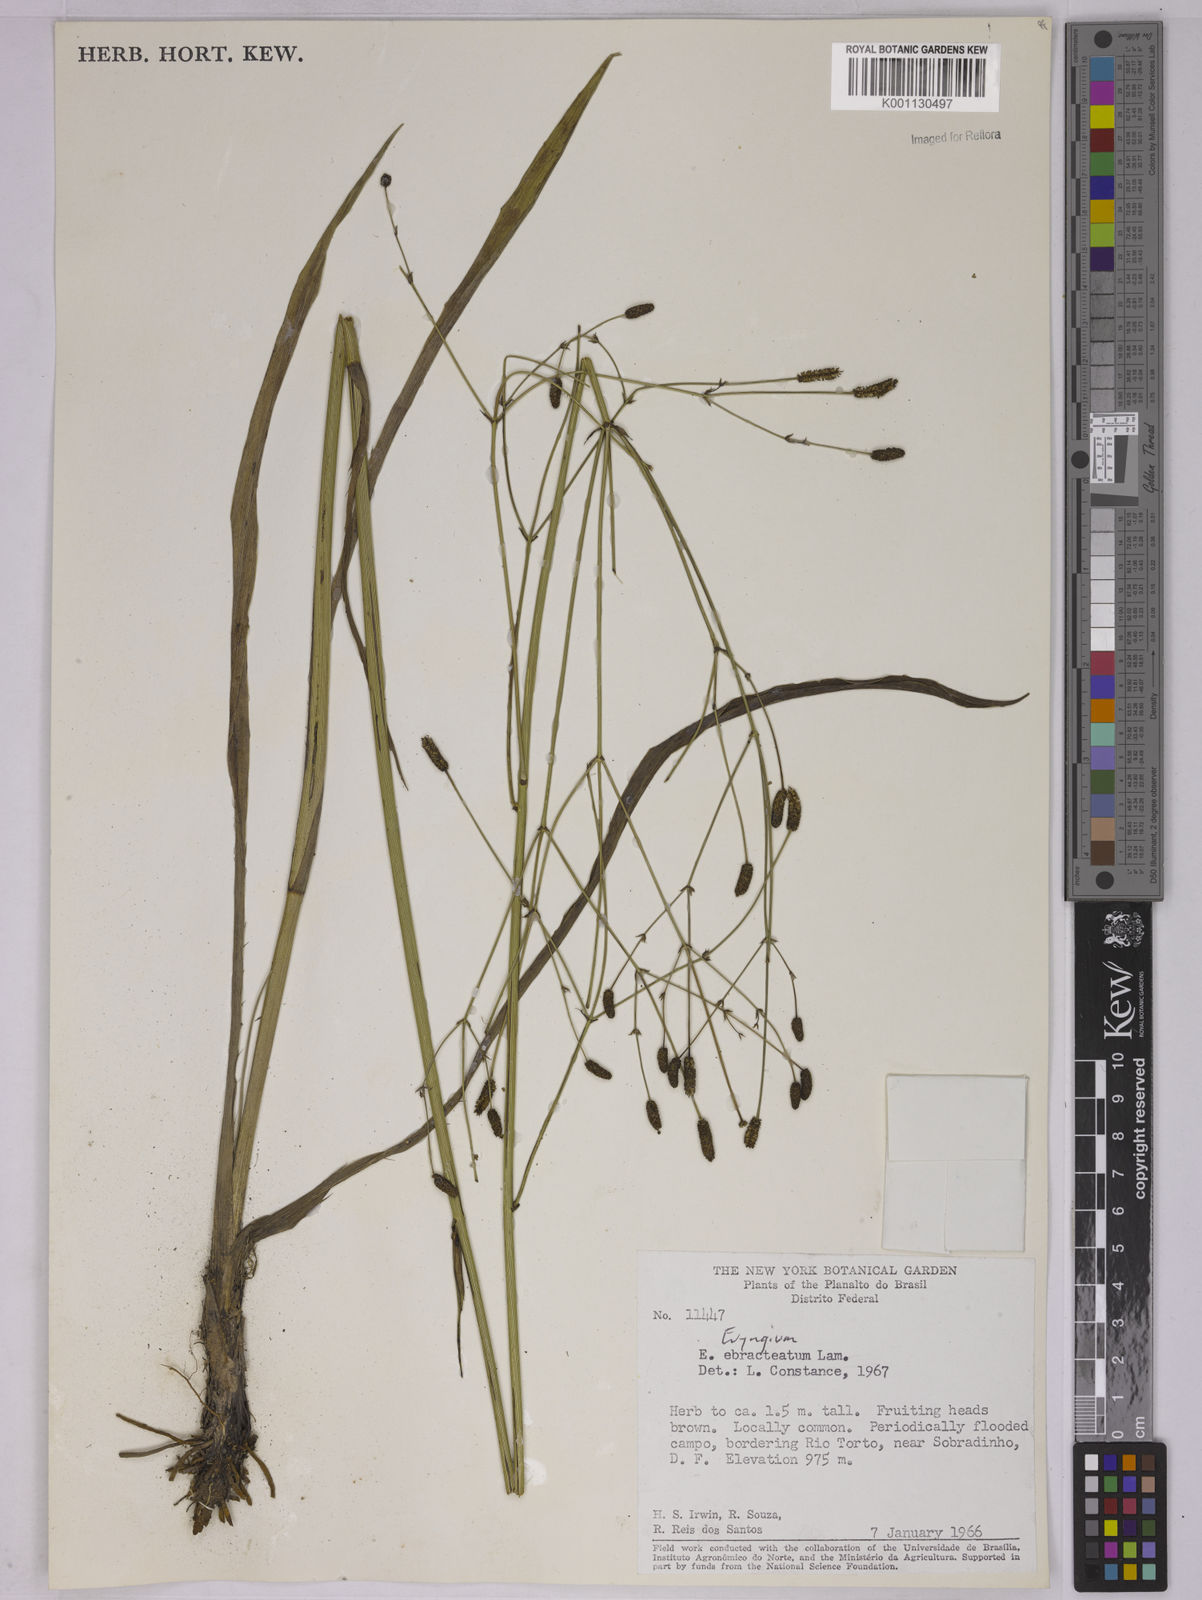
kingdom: Plantae
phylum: Tracheophyta
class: Magnoliopsida
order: Apiales
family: Apiaceae
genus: Eryngium
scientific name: Eryngium ebracteatum
